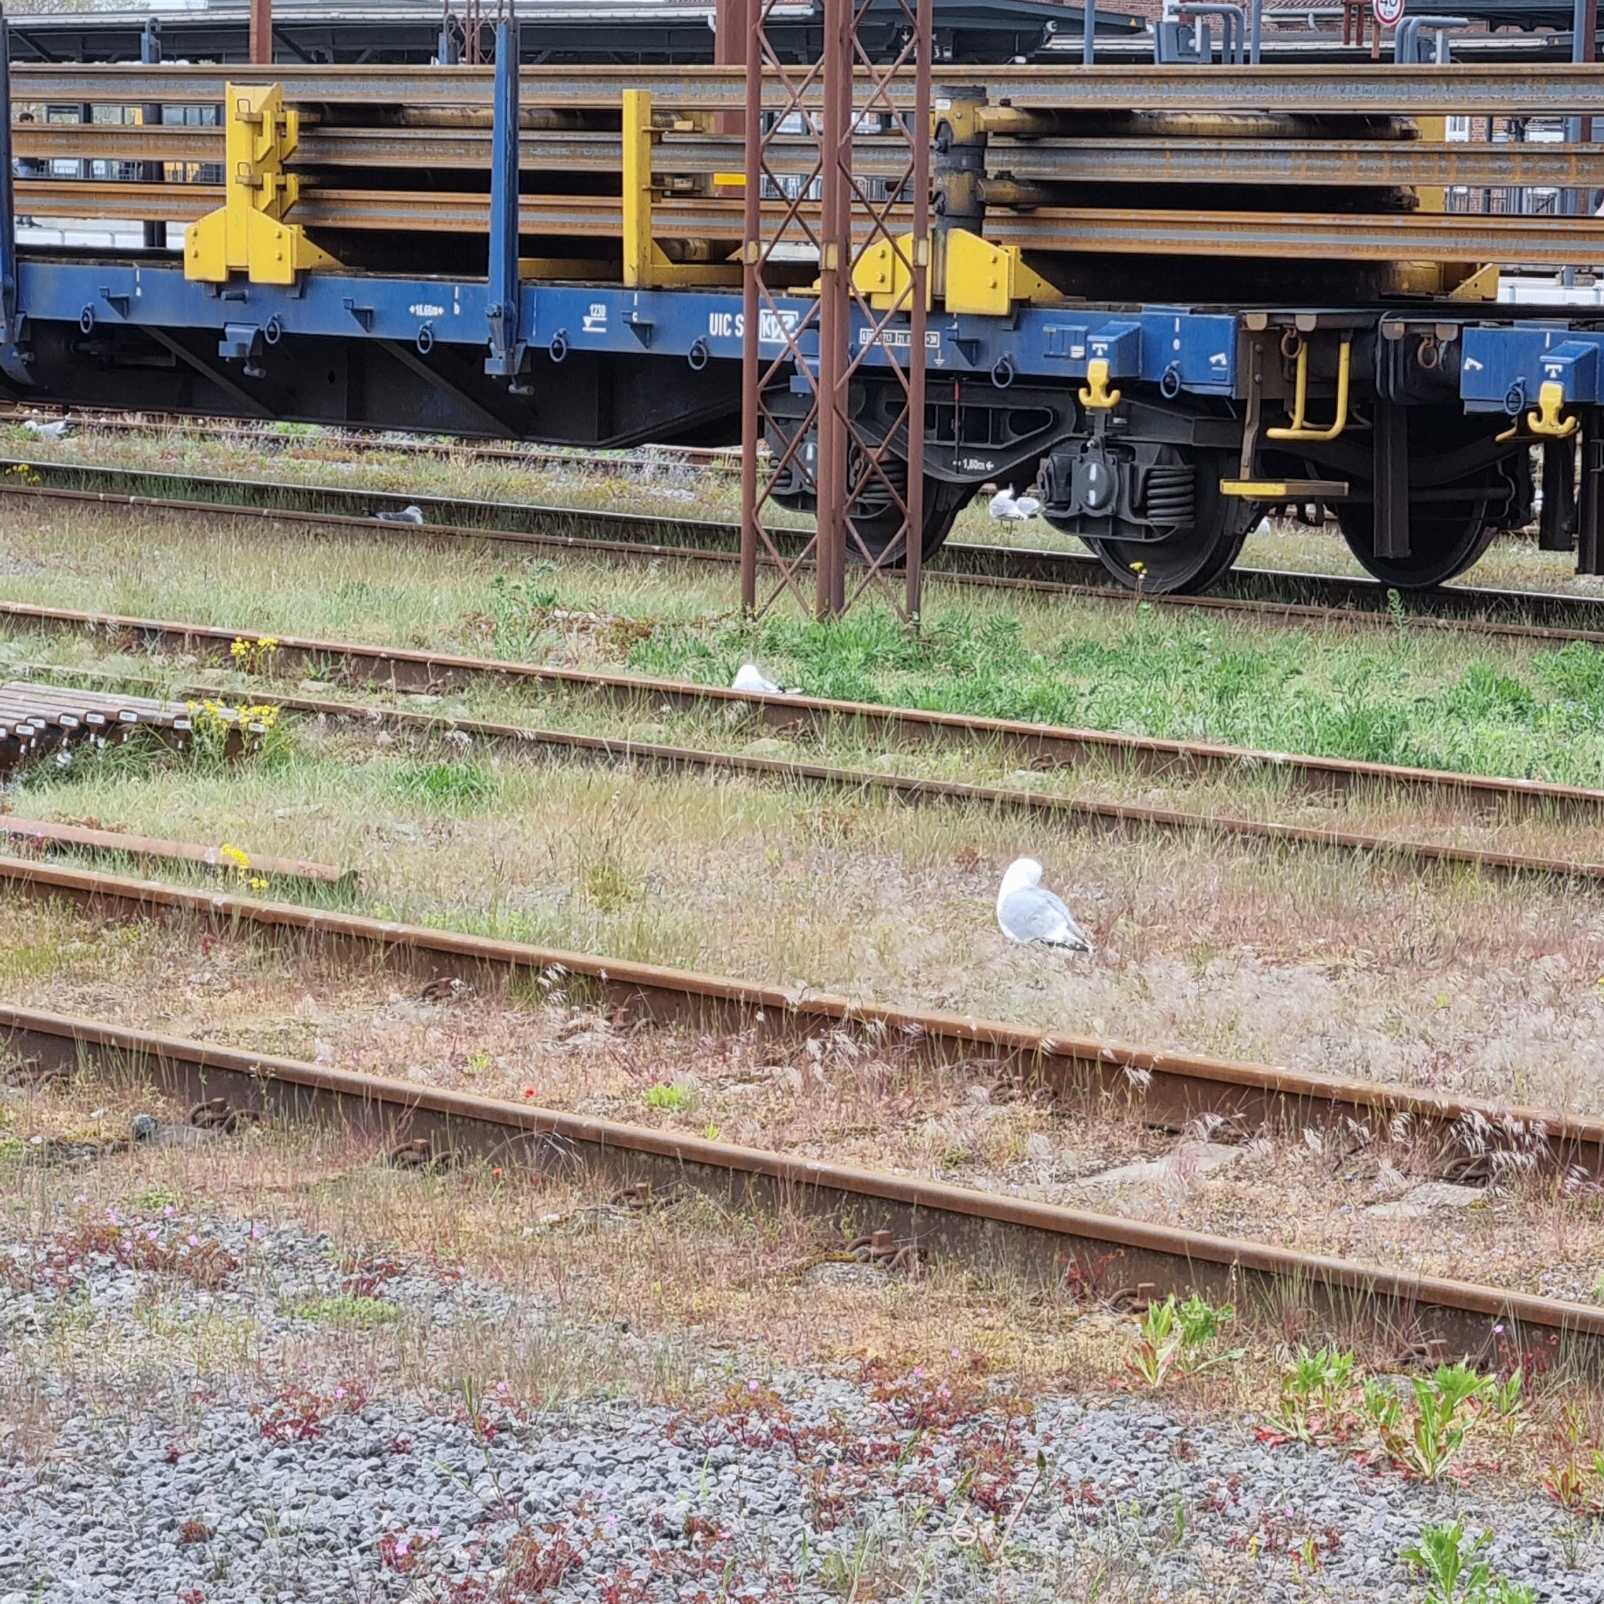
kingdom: Animalia
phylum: Chordata
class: Aves
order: Charadriiformes
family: Laridae
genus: Larus
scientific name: Larus canus
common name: Stormmåge
